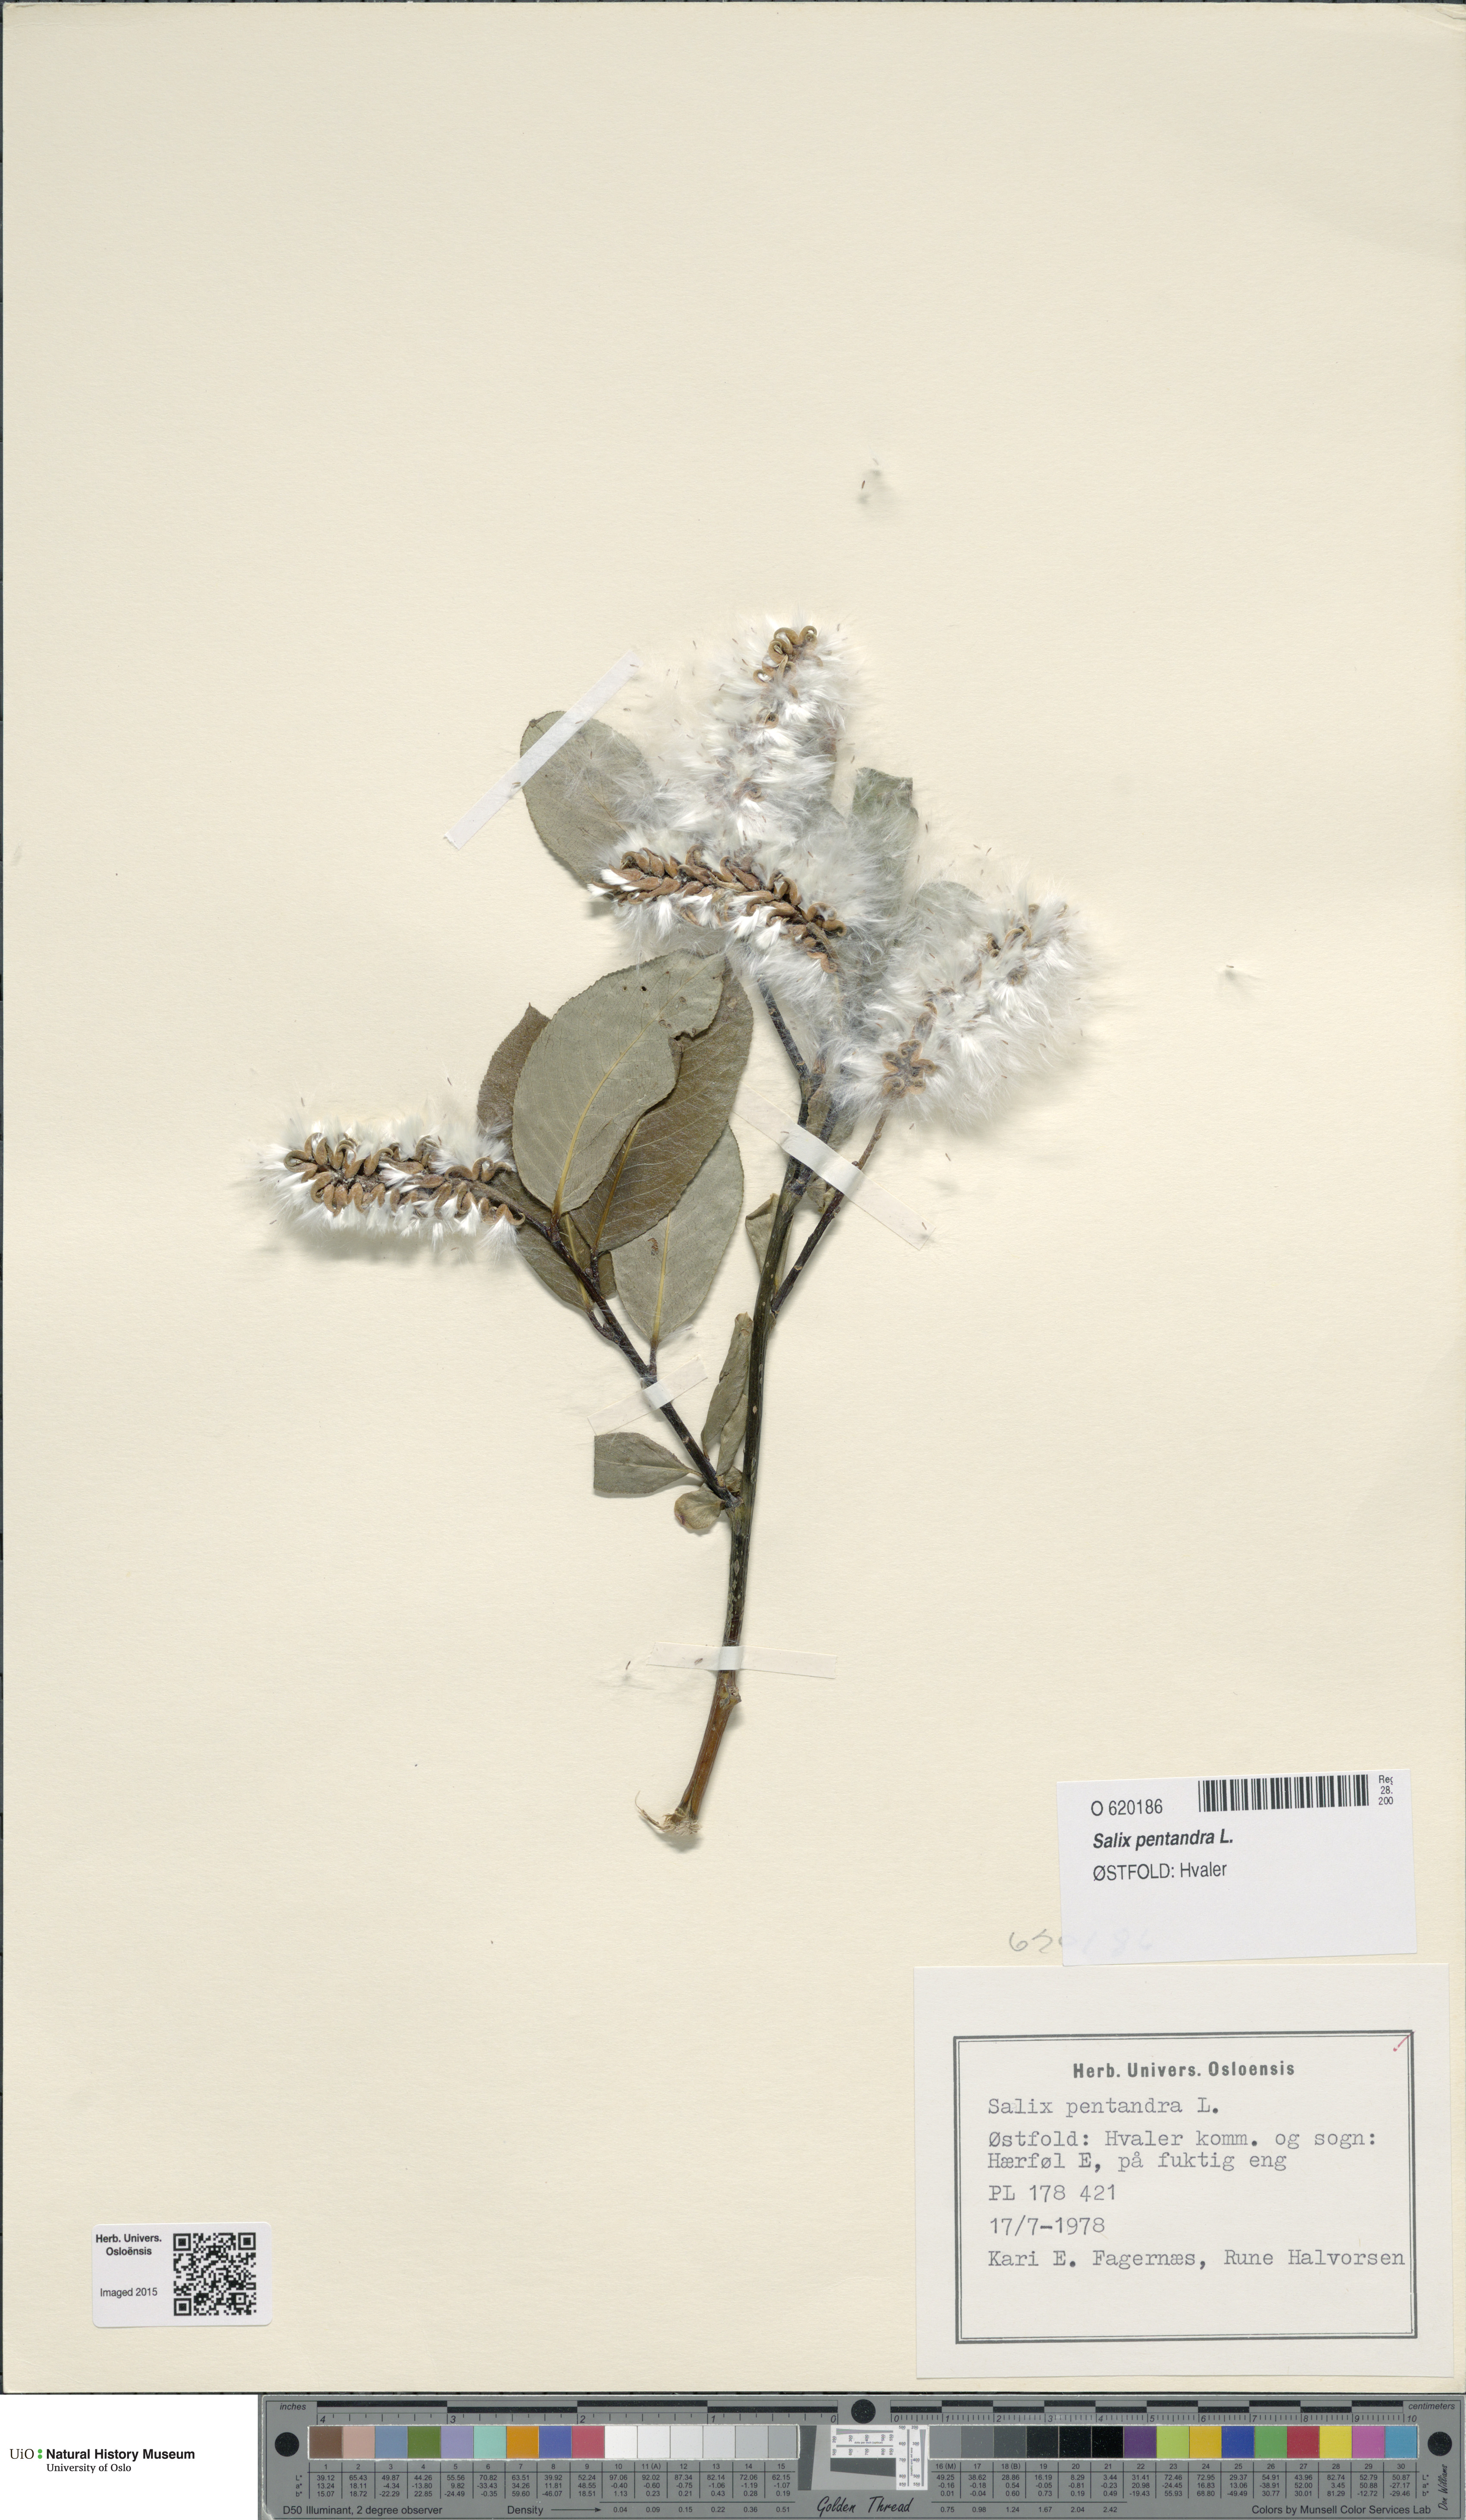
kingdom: Plantae
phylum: Tracheophyta
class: Magnoliopsida
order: Malpighiales
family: Salicaceae
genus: Salix
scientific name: Salix pentandra
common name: Bay willow
